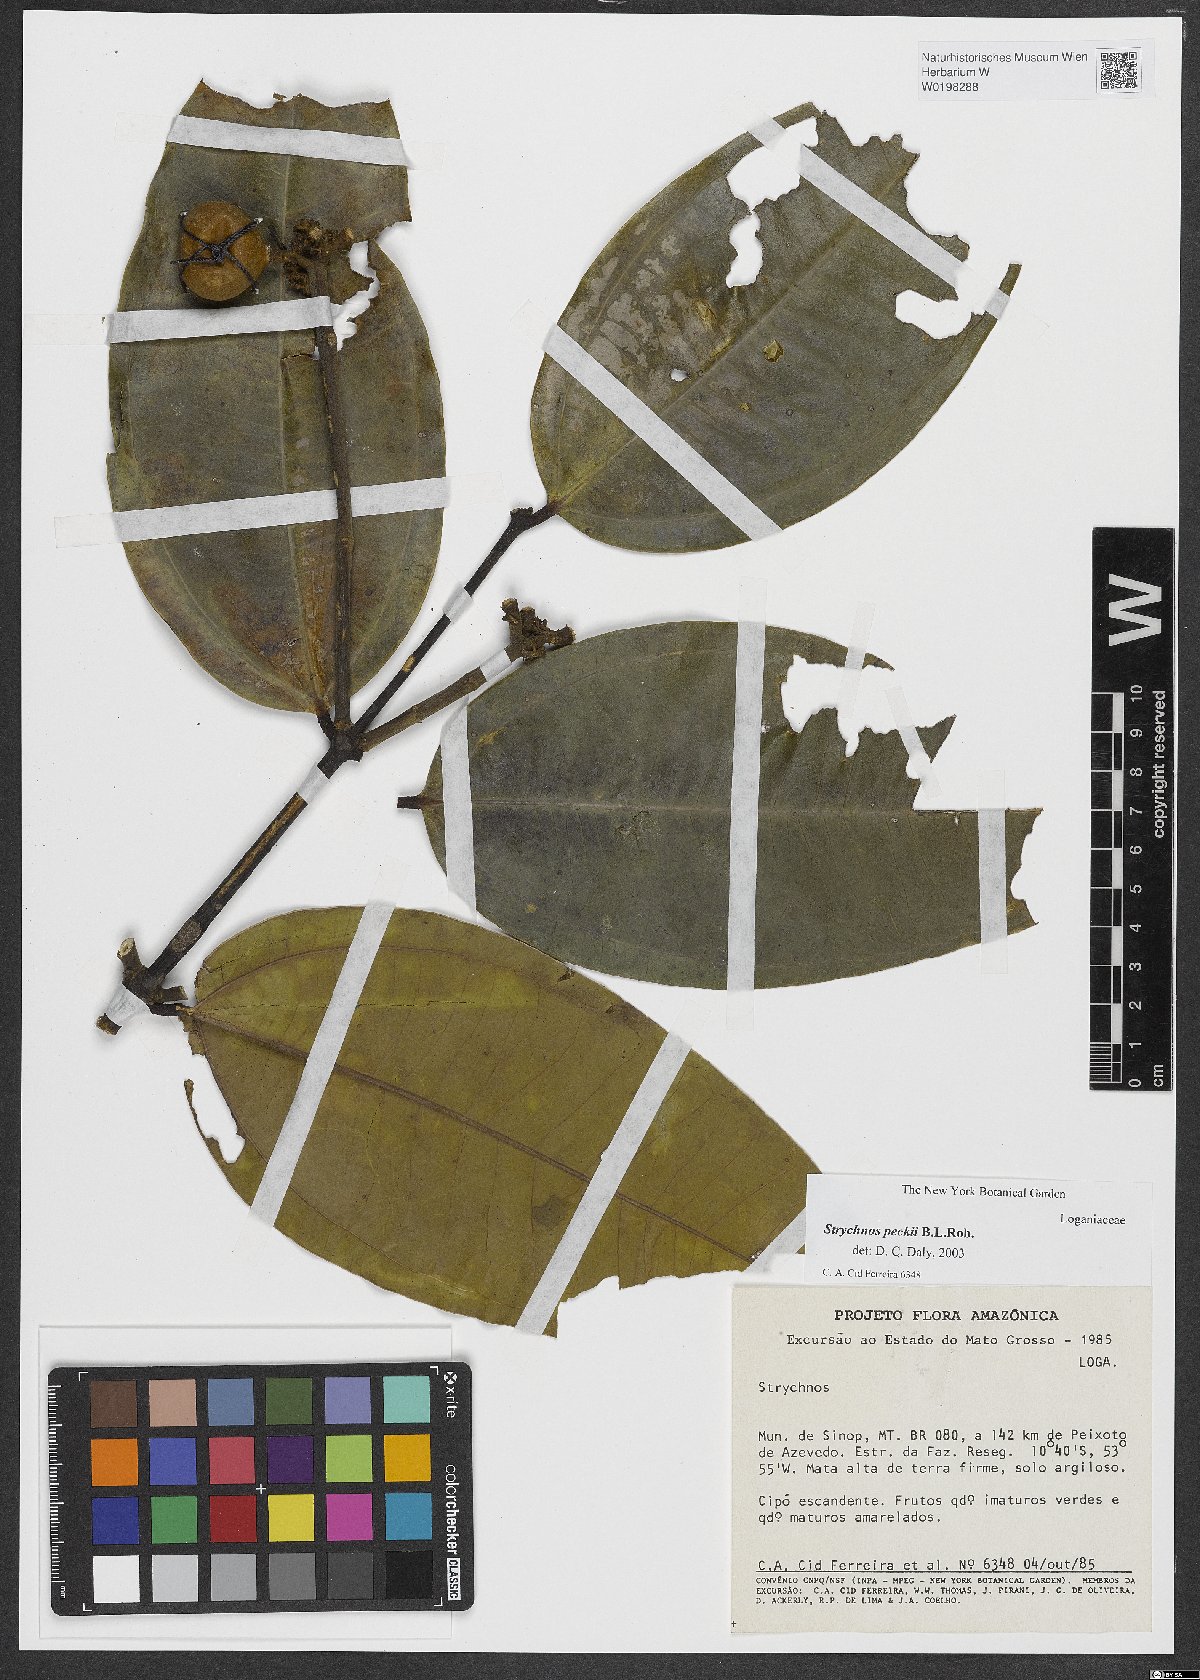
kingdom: Plantae
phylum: Tracheophyta
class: Magnoliopsida
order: Gentianales
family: Loganiaceae
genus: Strychnos
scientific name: Strychnos peckii
